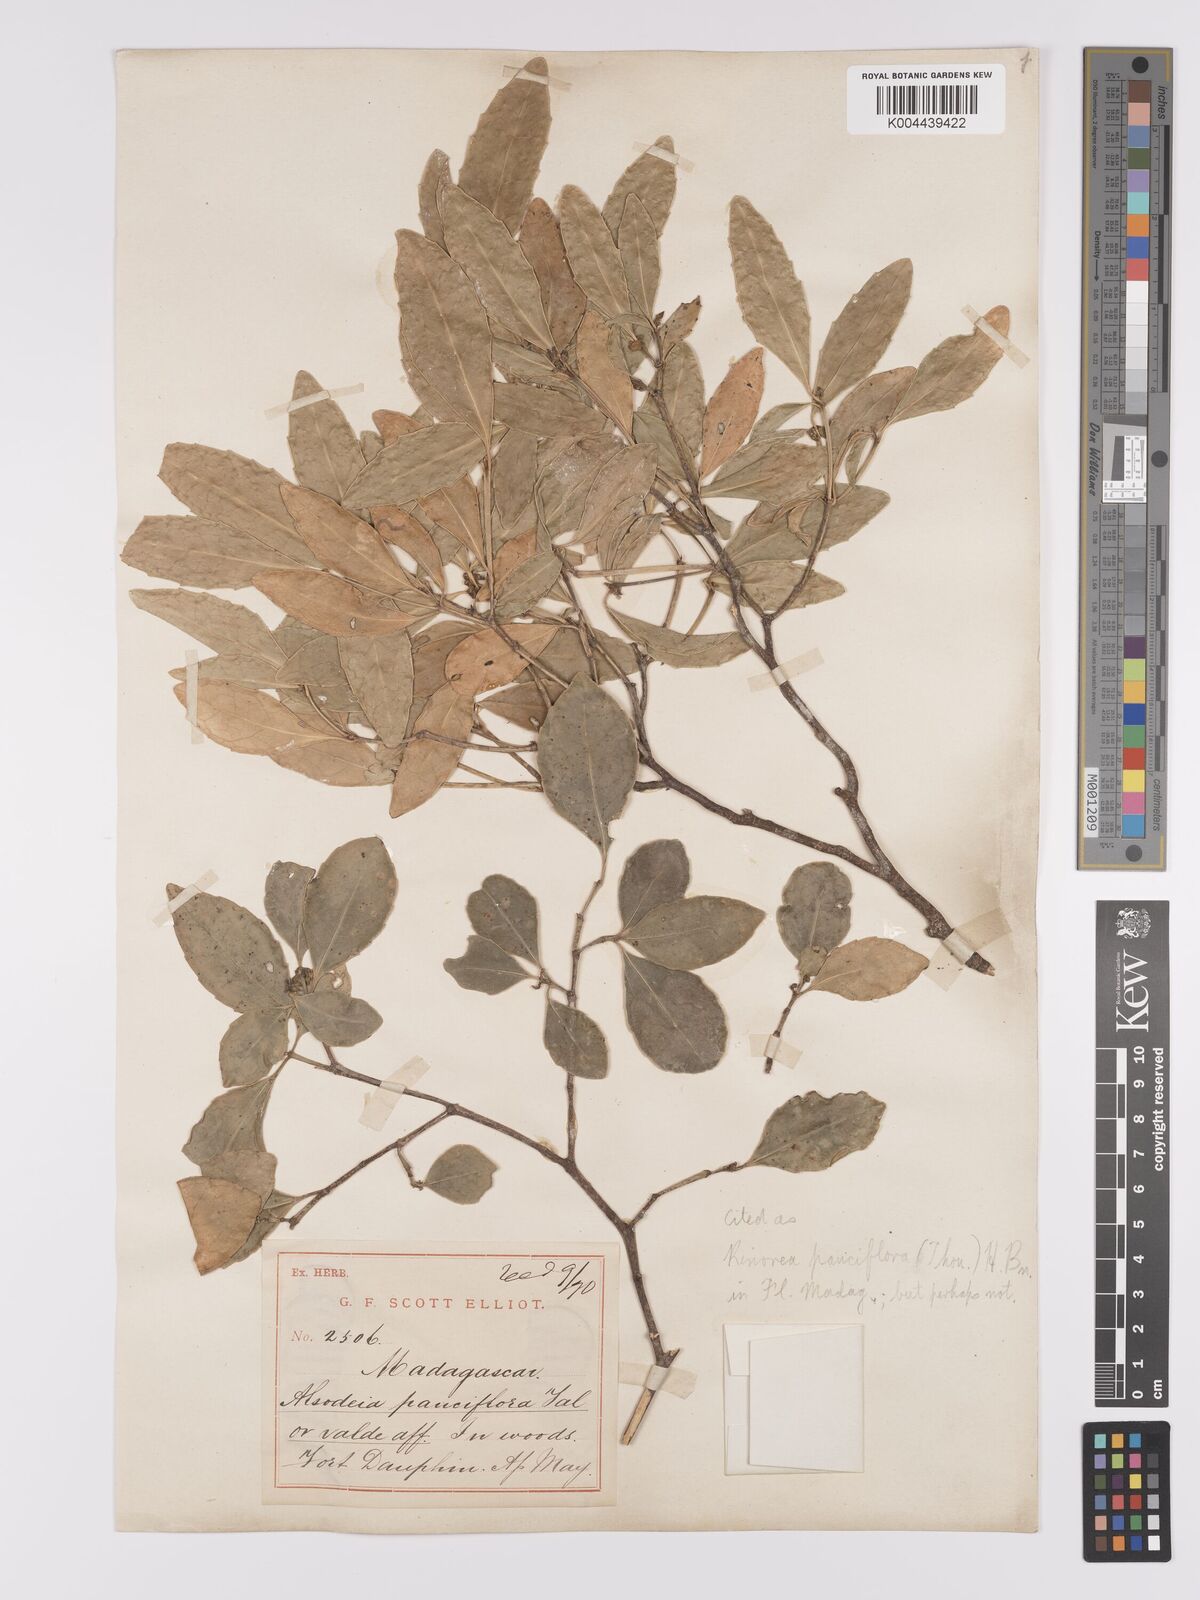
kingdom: Plantae
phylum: Tracheophyta
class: Magnoliopsida
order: Malpighiales
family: Violaceae
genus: Rinorea
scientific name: Rinorea pauciflora
